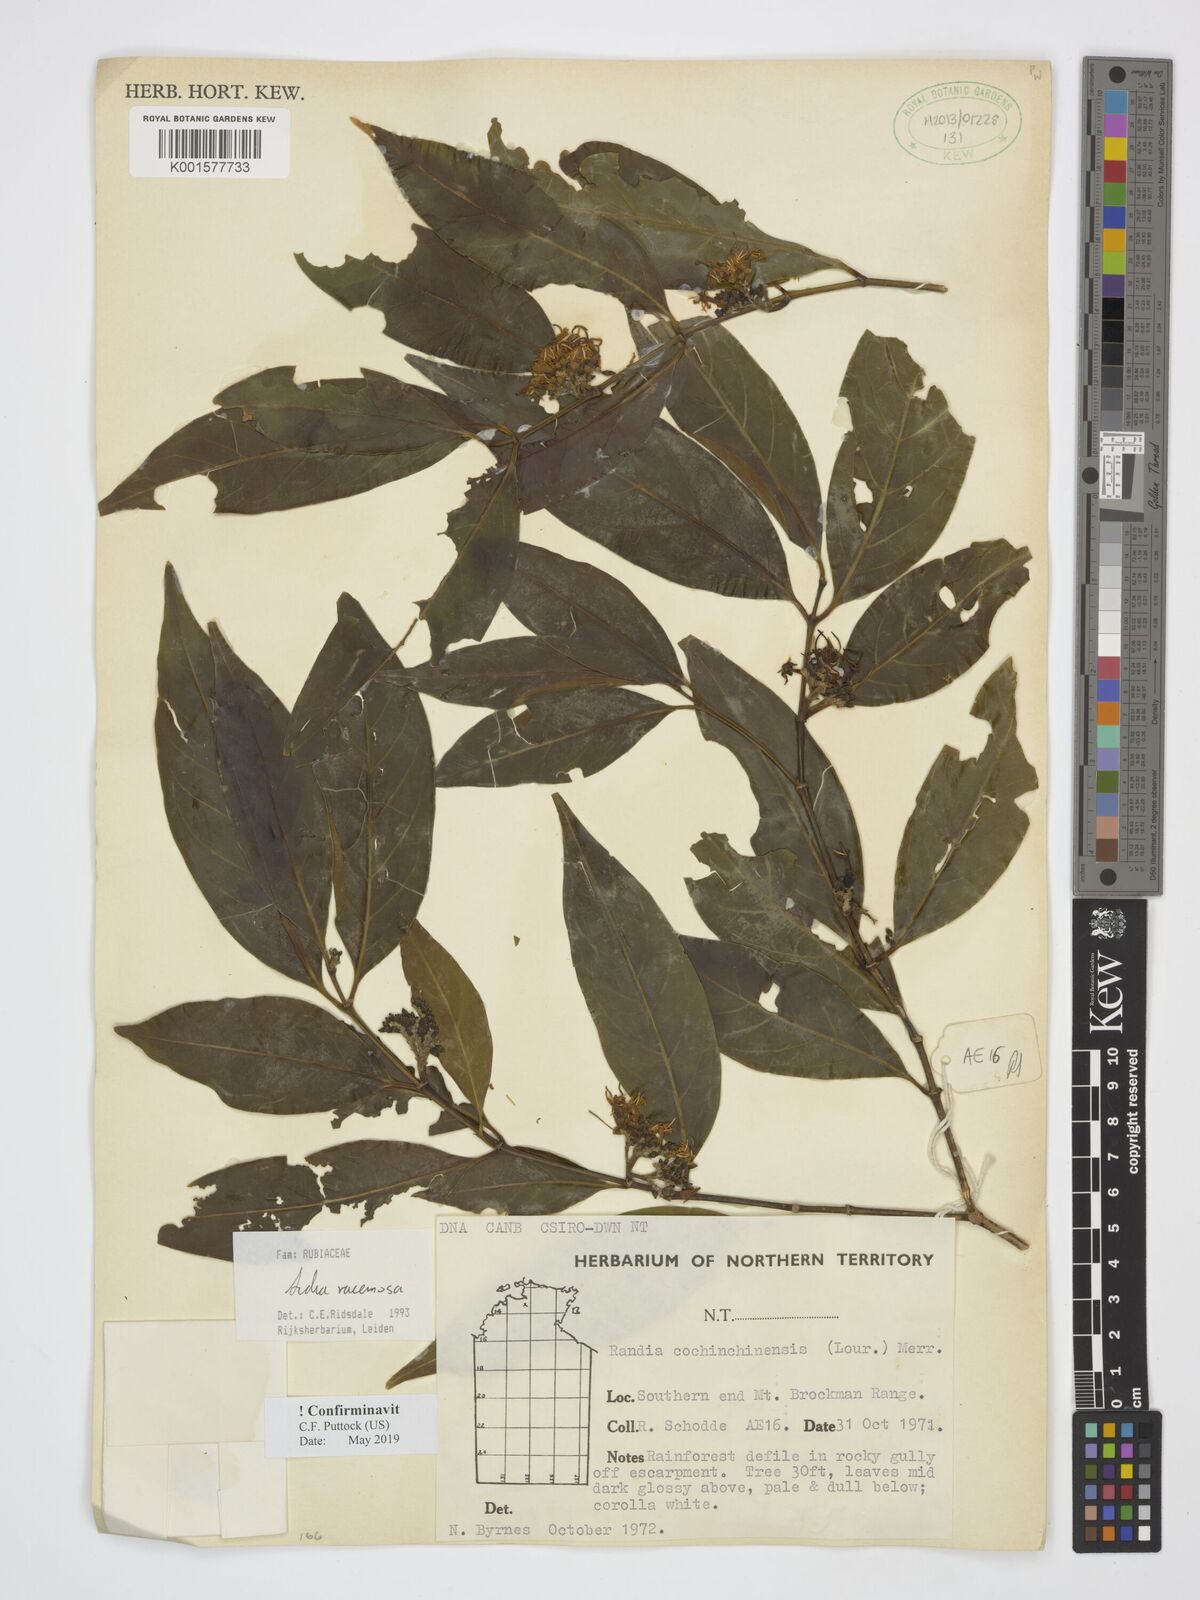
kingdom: Plantae
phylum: Tracheophyta
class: Magnoliopsida
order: Gentianales
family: Rubiaceae
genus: Aidia
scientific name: Aidia racemosa
